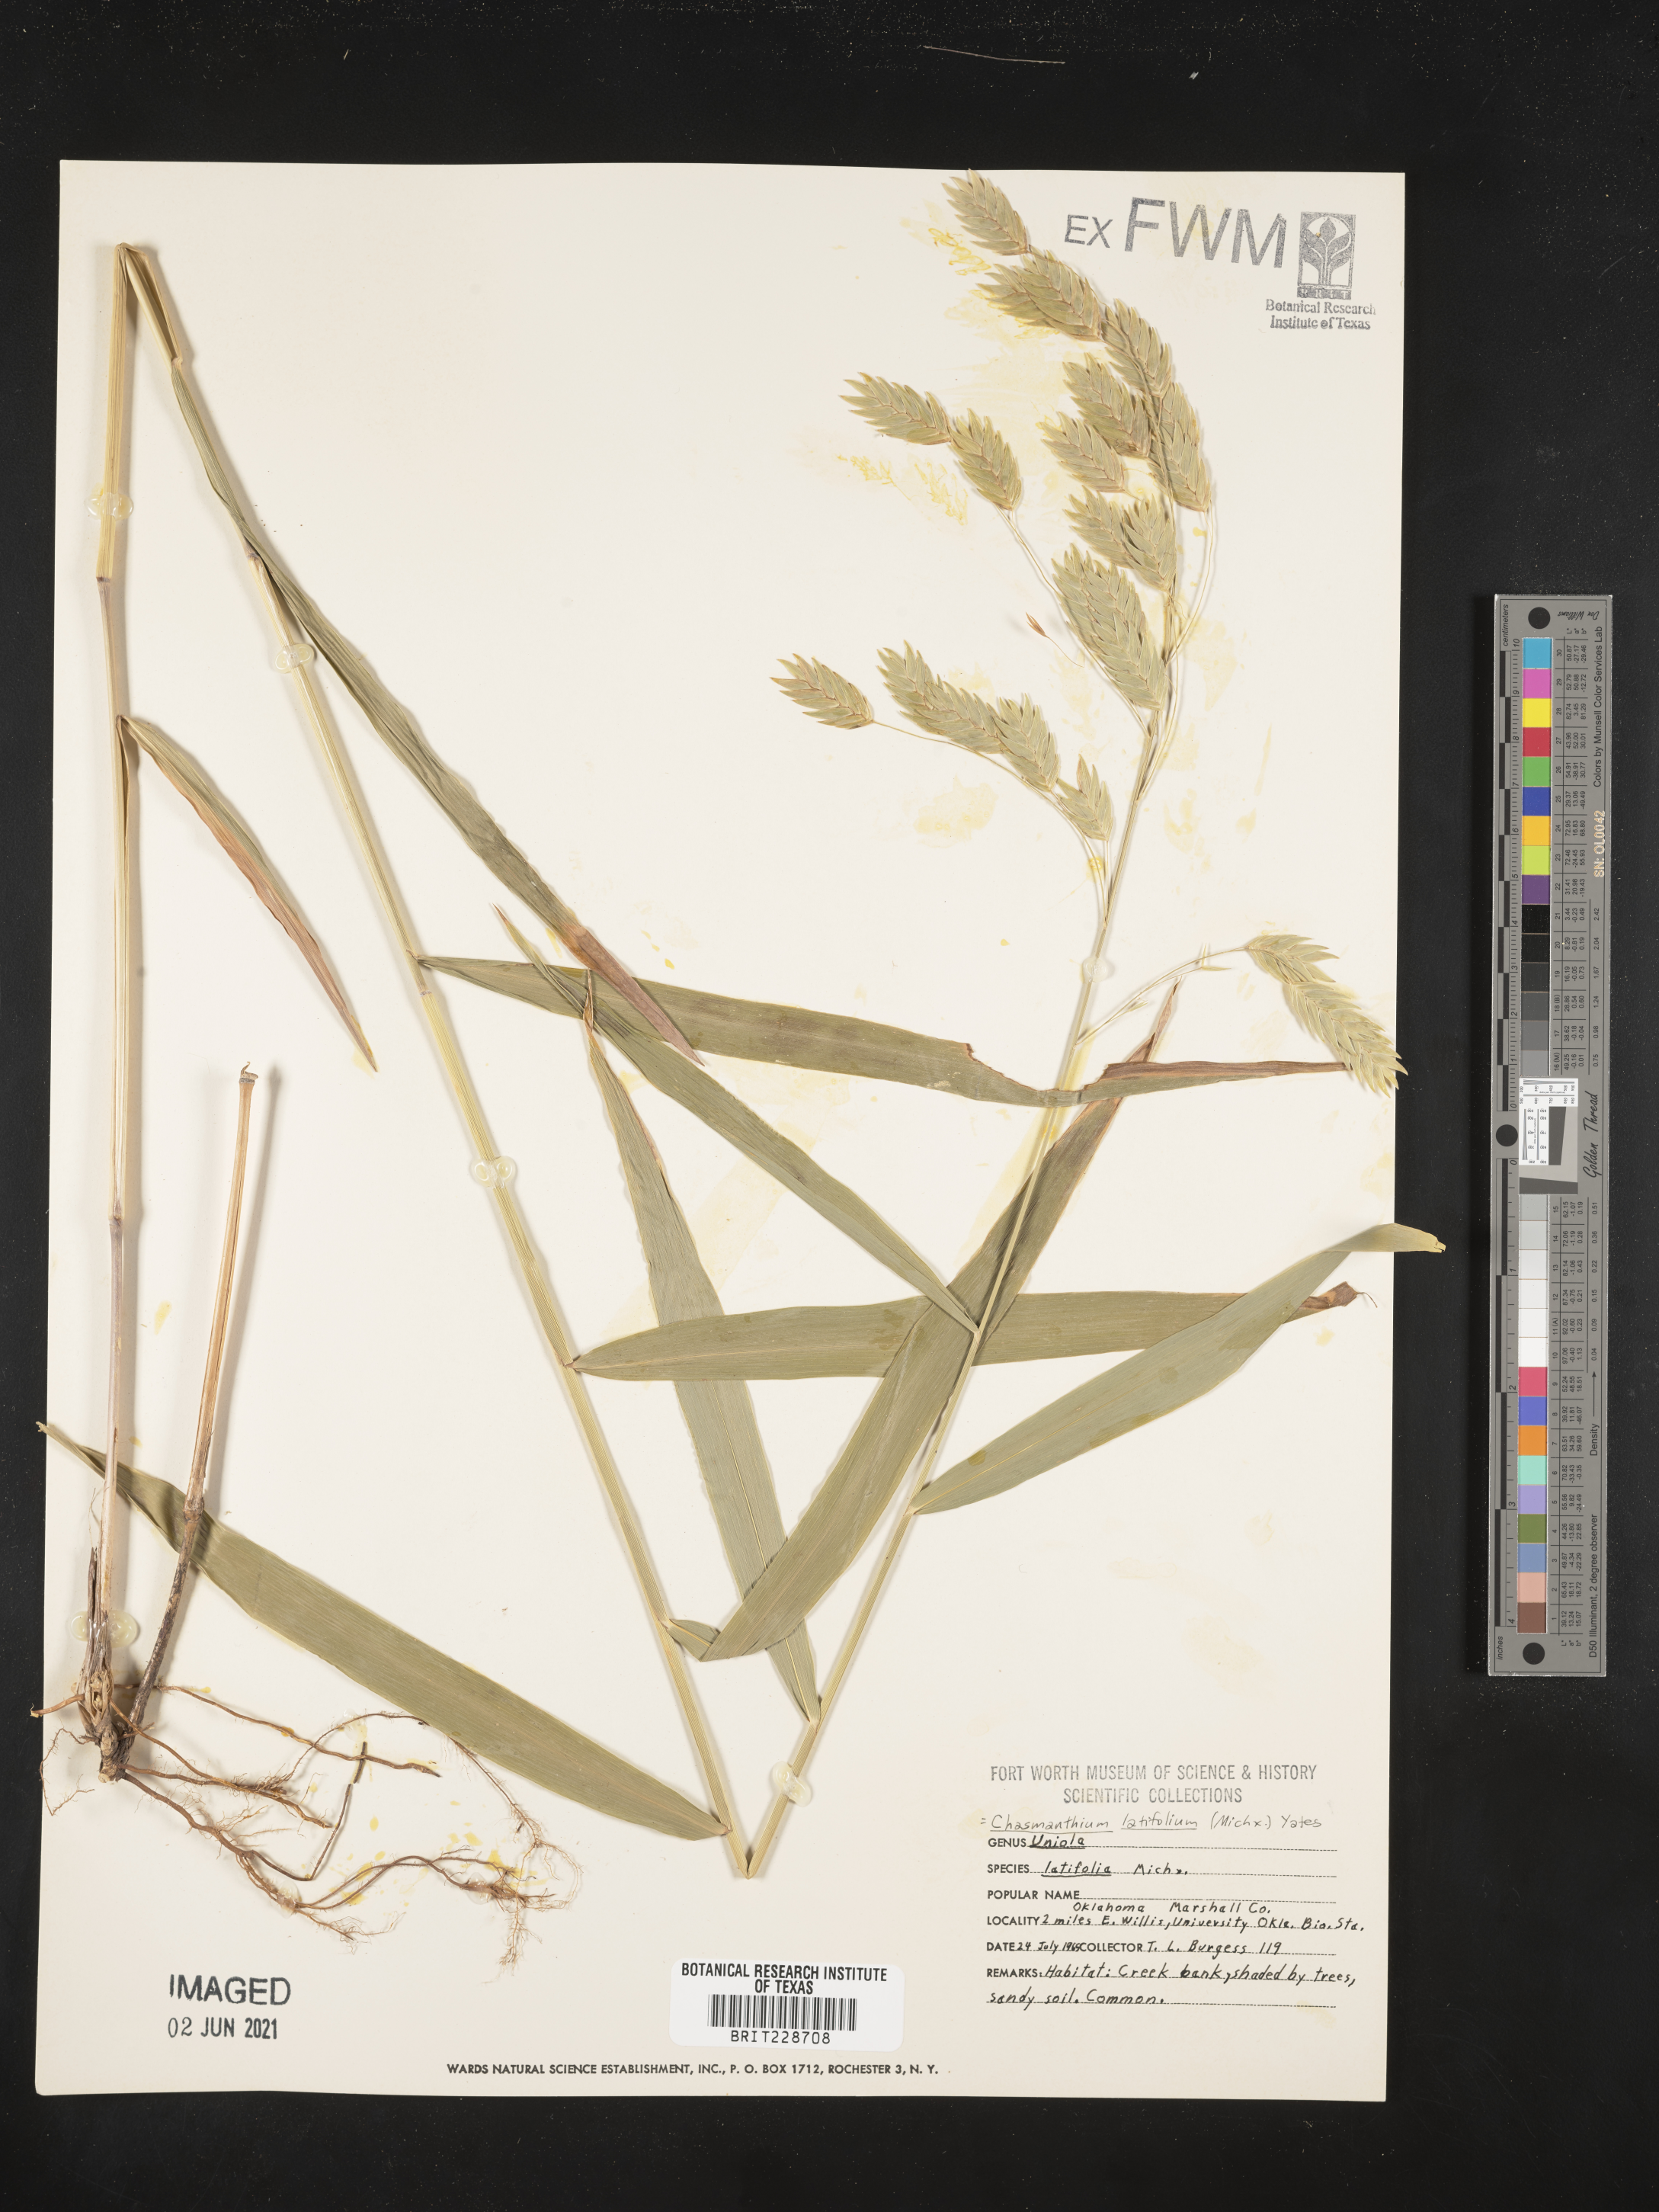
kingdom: Plantae
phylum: Tracheophyta
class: Liliopsida
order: Poales
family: Poaceae
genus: Chasmanthium
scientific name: Chasmanthium latifolium
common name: Broad-leaved chasmanthium
